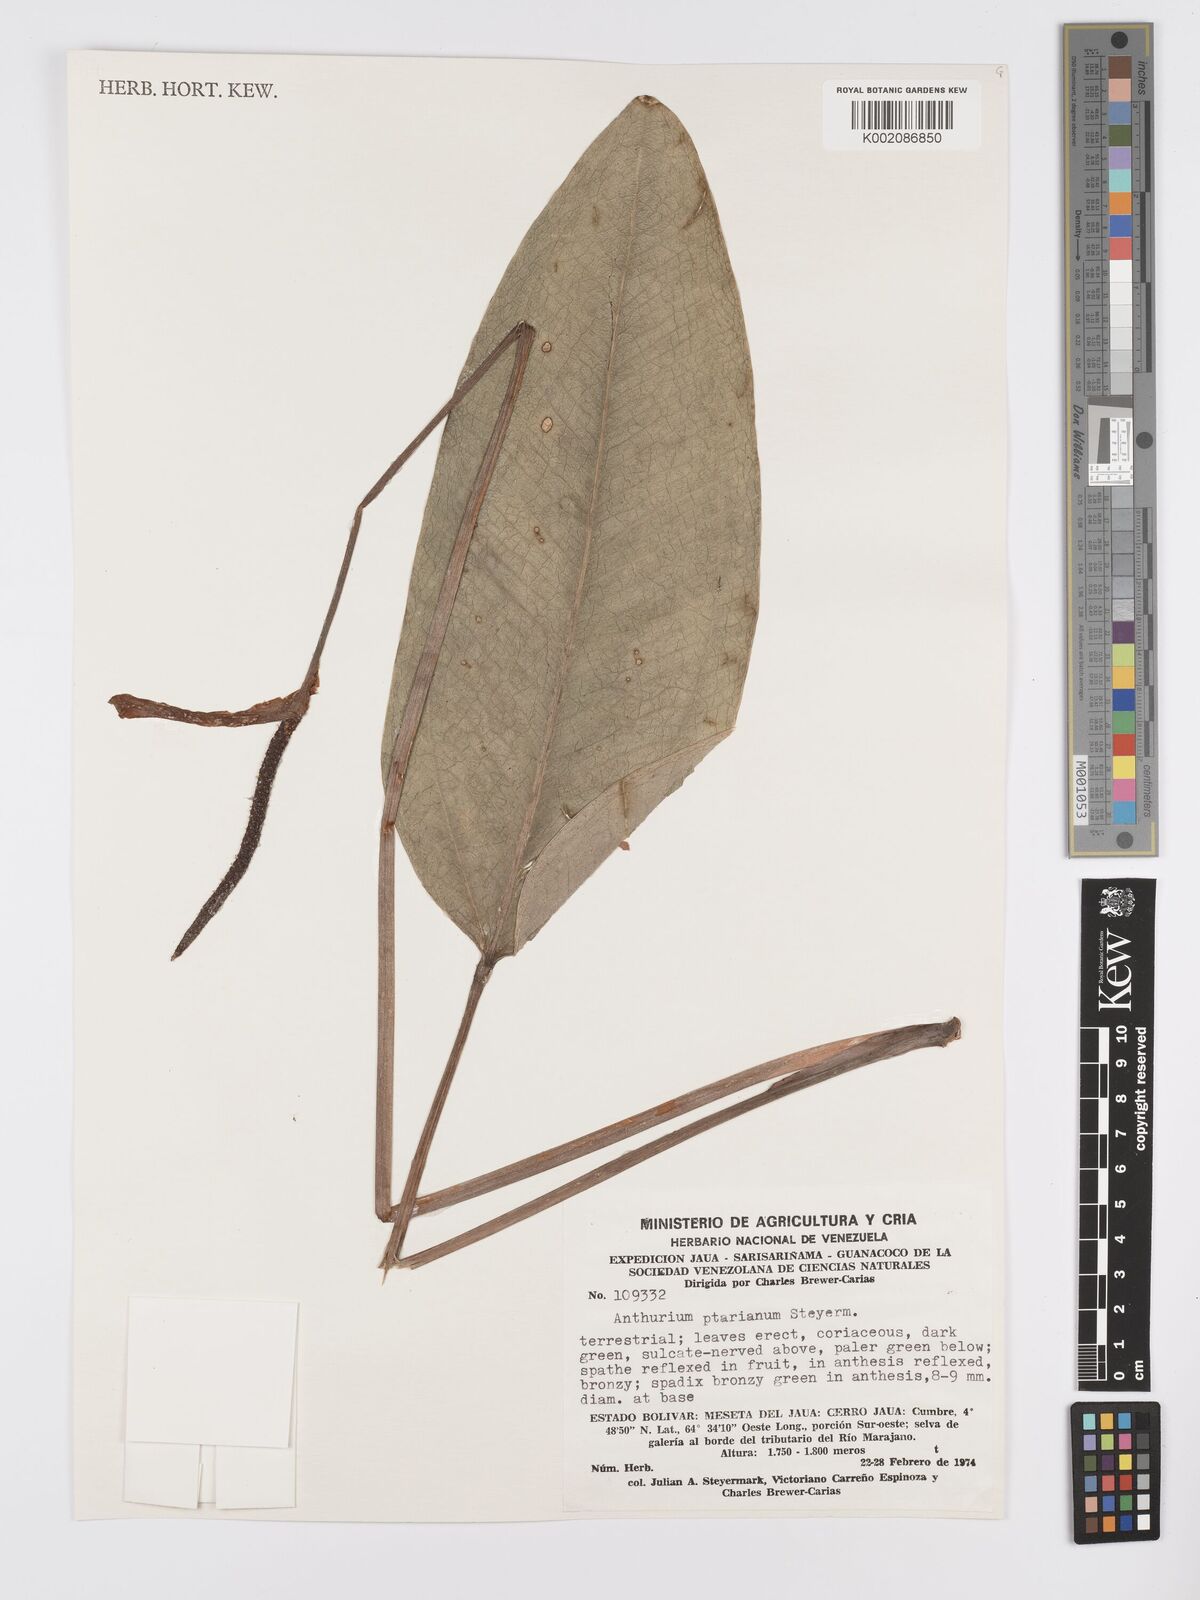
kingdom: Plantae
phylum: Tracheophyta
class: Liliopsida
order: Alismatales
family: Araceae
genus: Anthurium
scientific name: Anthurium ptarianum
